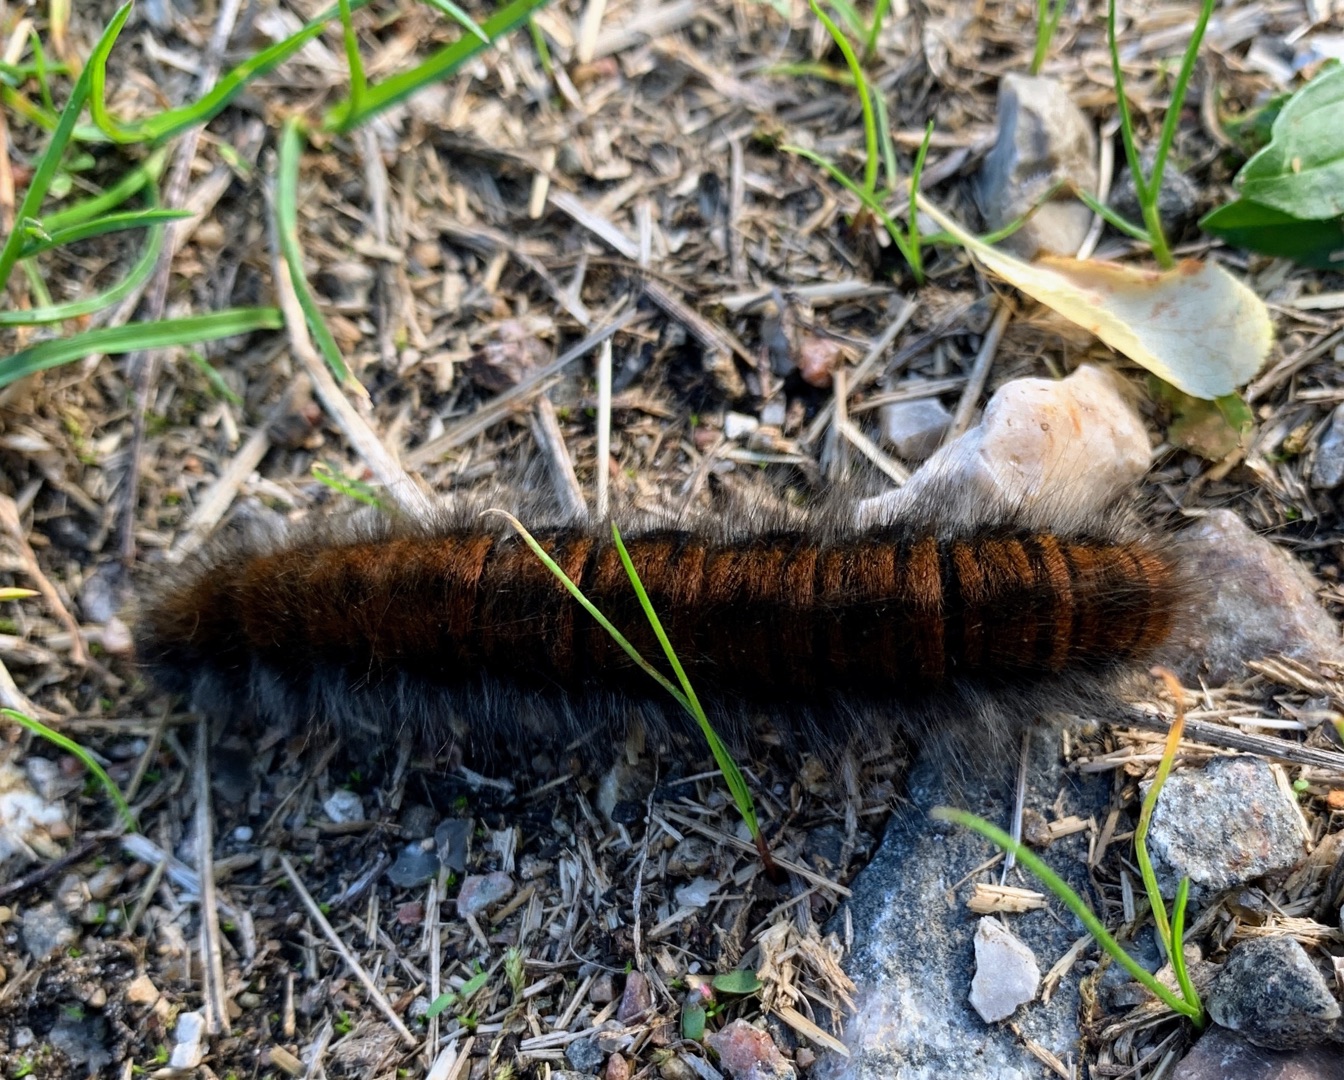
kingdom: Animalia
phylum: Arthropoda
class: Insecta
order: Lepidoptera
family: Lasiocampidae
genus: Macrothylacia
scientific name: Macrothylacia rubi
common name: Brombærspinder
